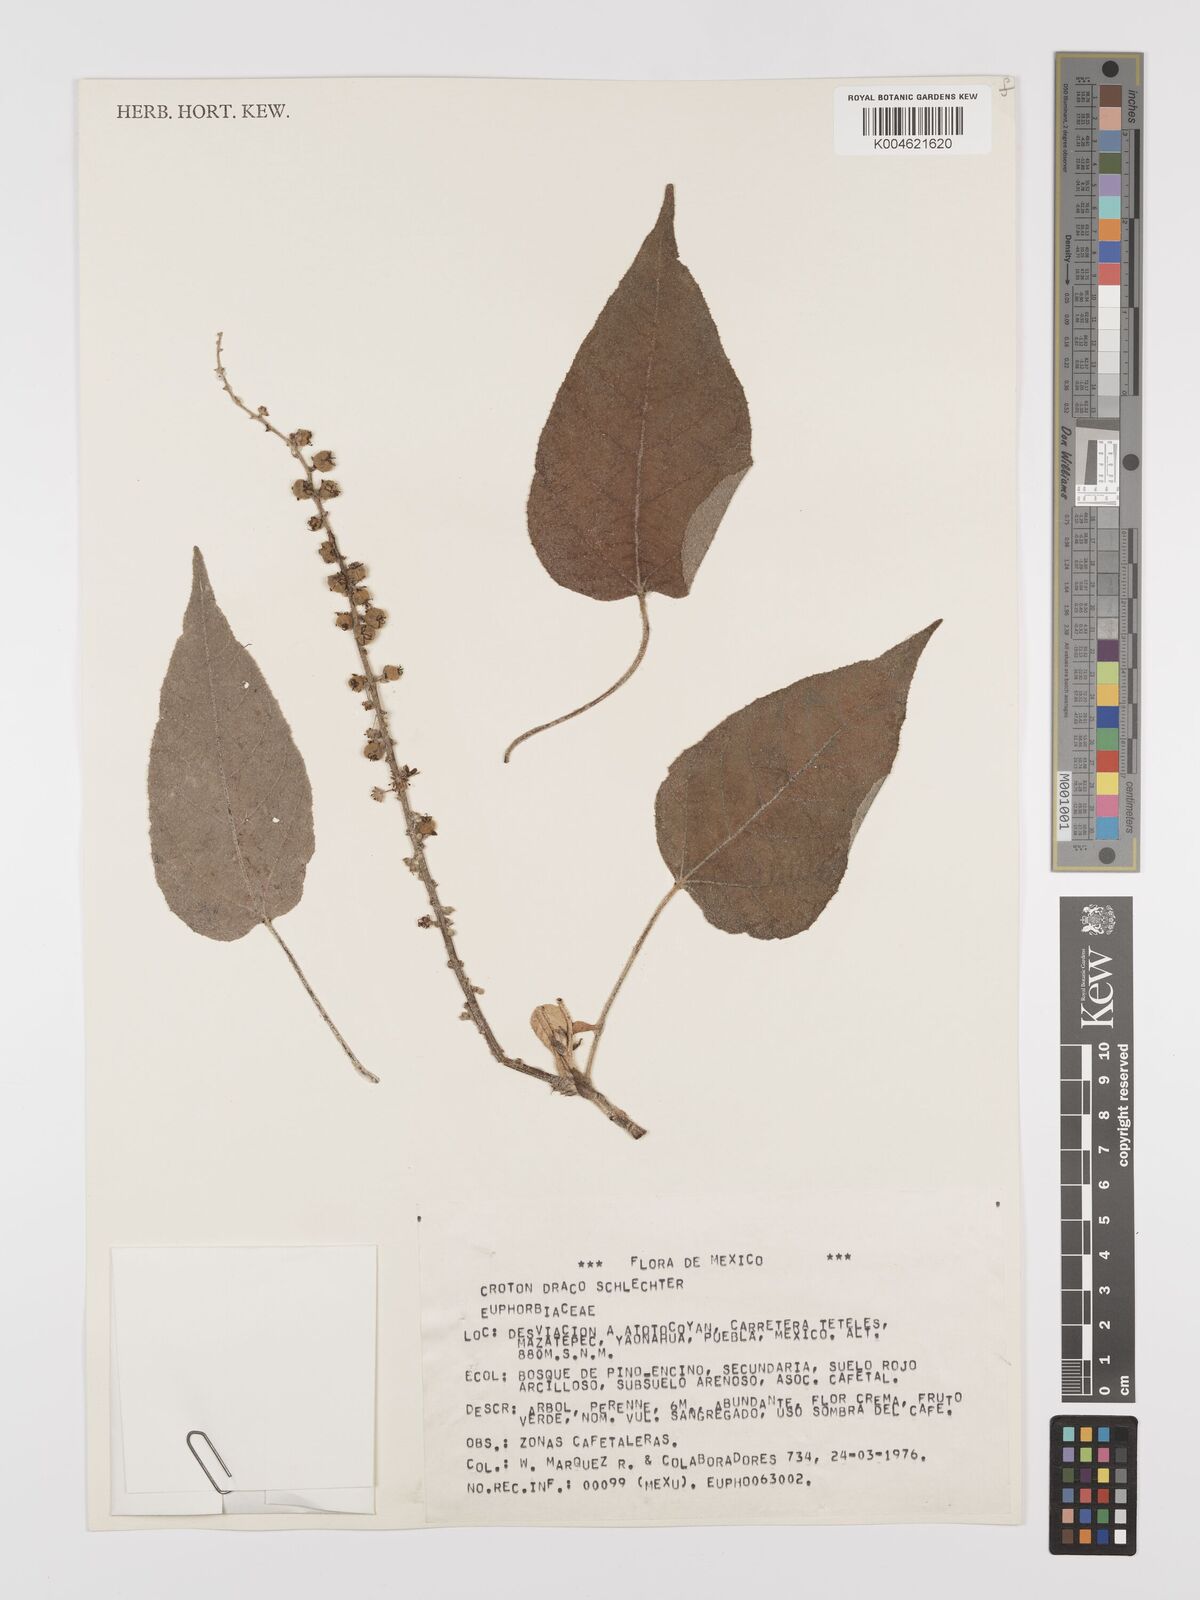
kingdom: Plantae
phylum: Tracheophyta
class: Magnoliopsida
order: Malpighiales
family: Euphorbiaceae
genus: Croton
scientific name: Croton draco
